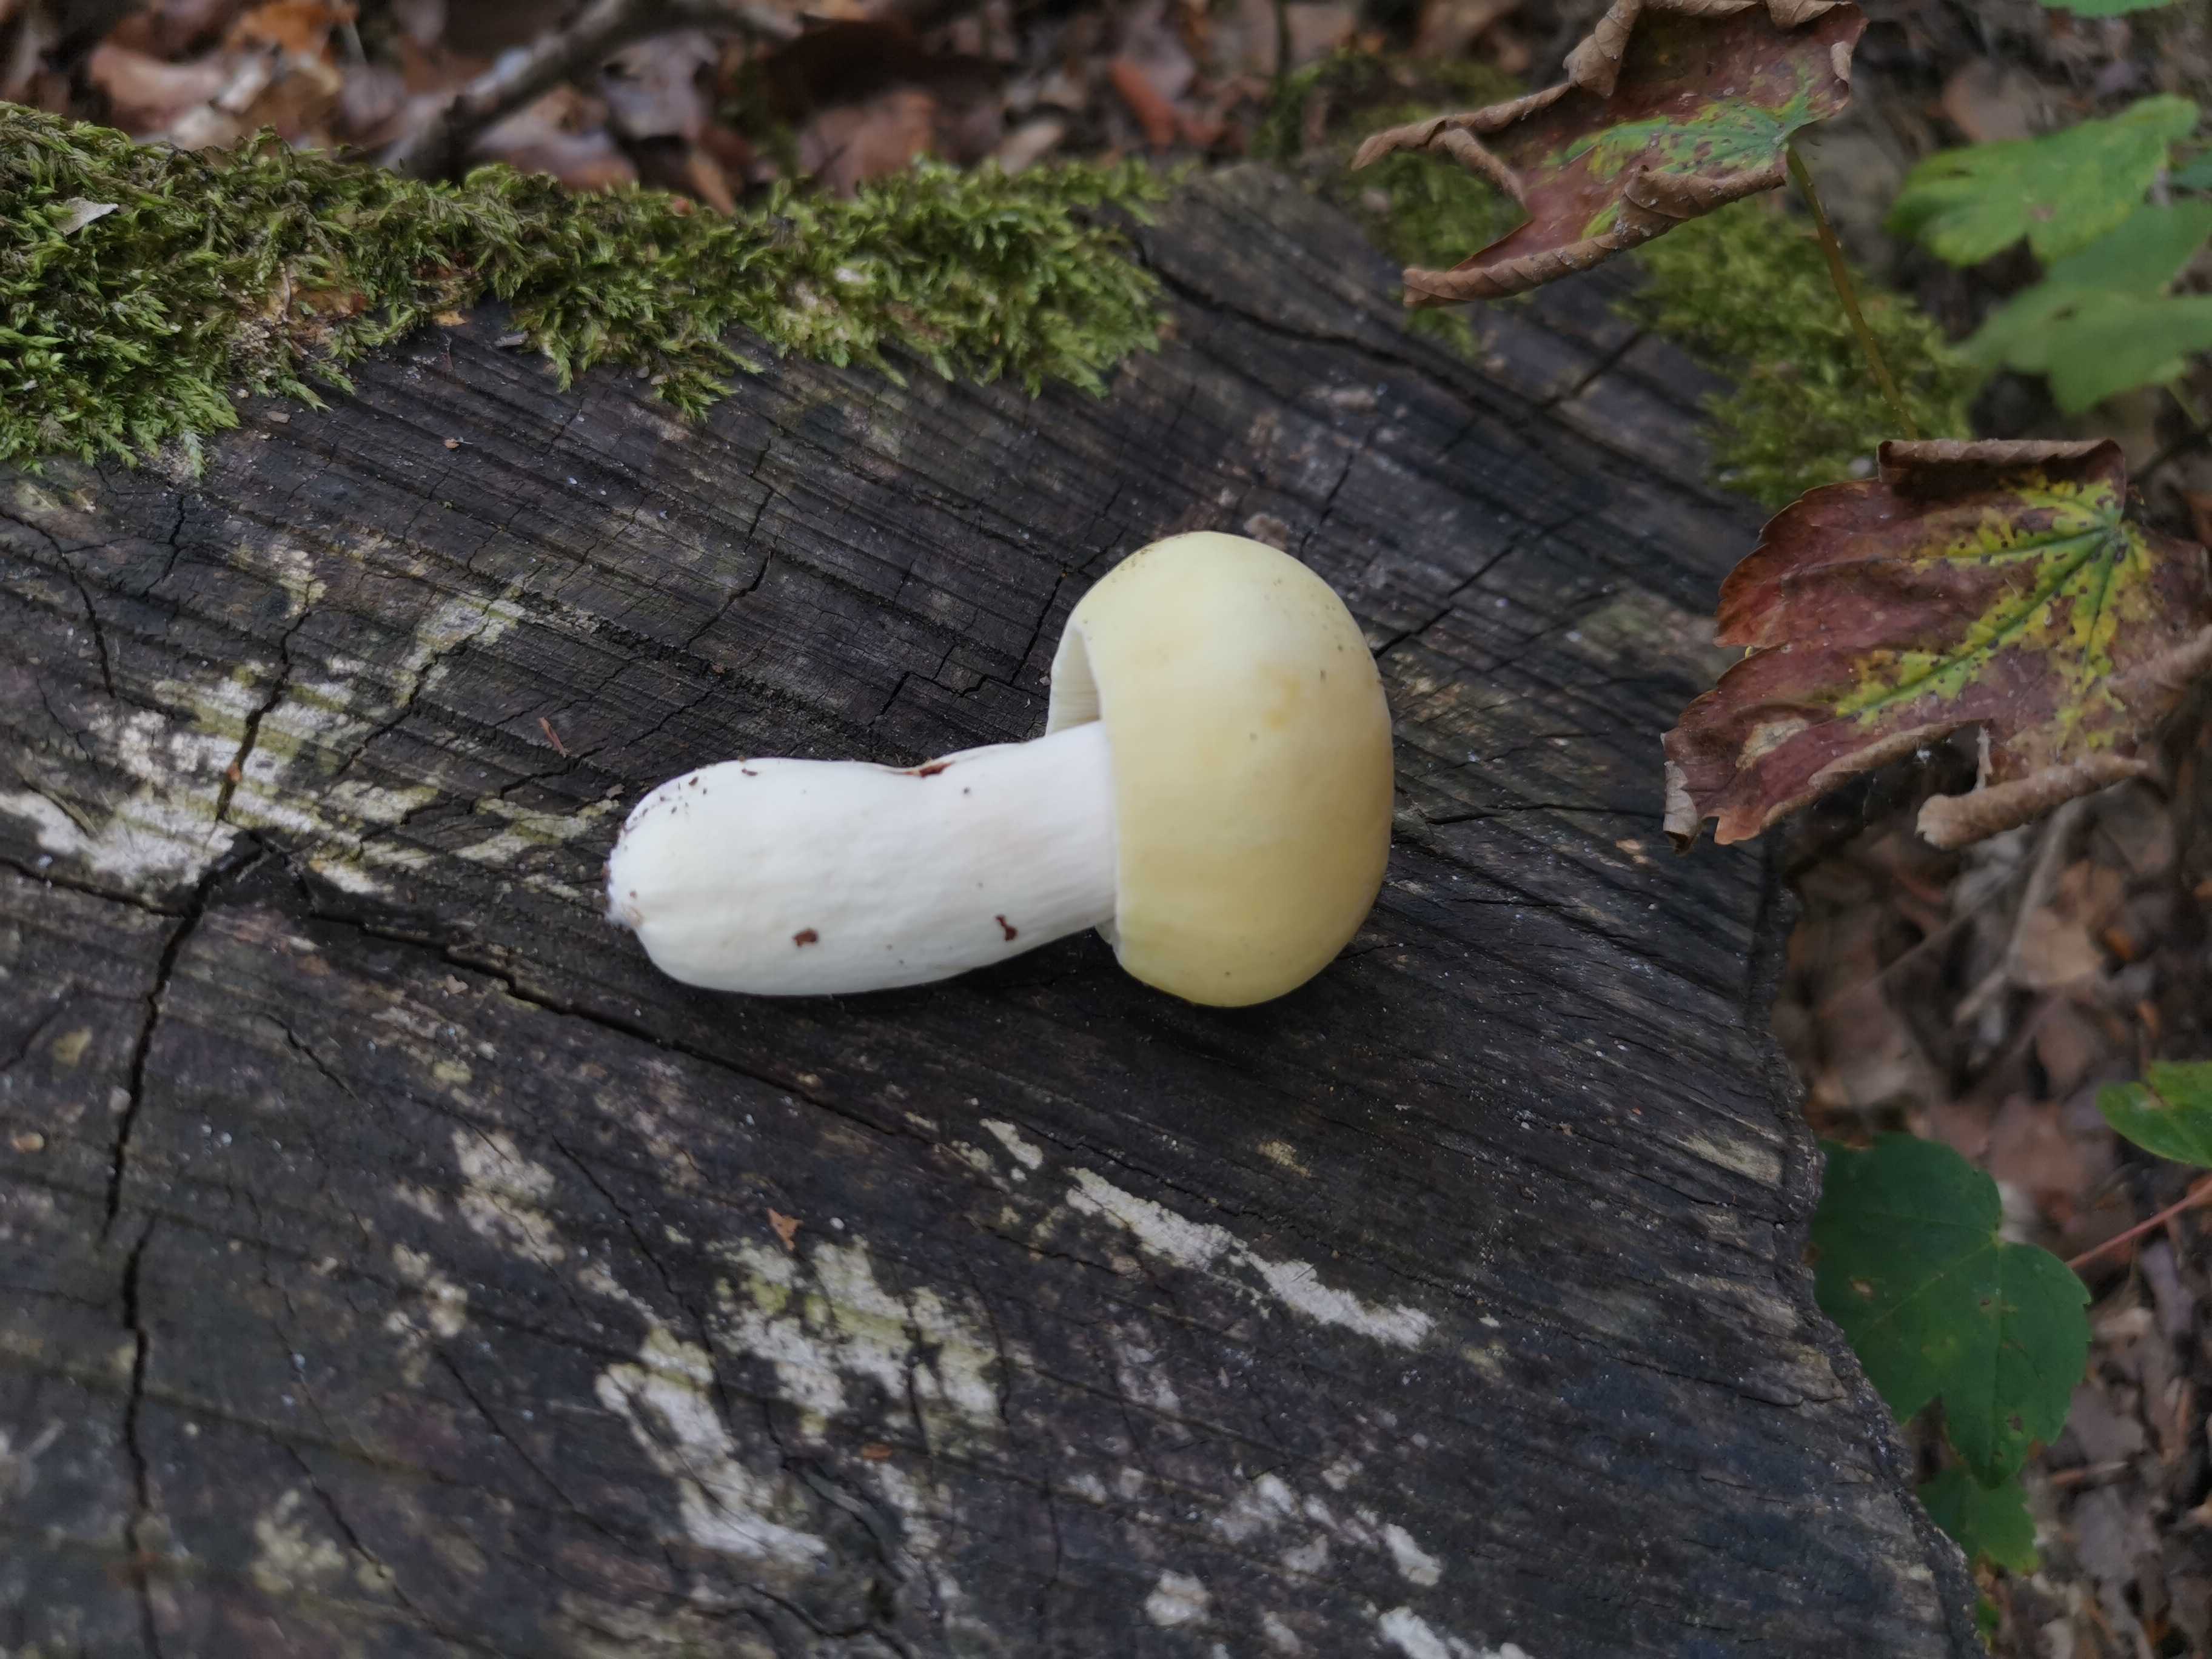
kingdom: Fungi
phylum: Basidiomycota
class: Agaricomycetes
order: Russulales
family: Russulaceae
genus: Russula
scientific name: Russula violeipes
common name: ferskengul skørhat
